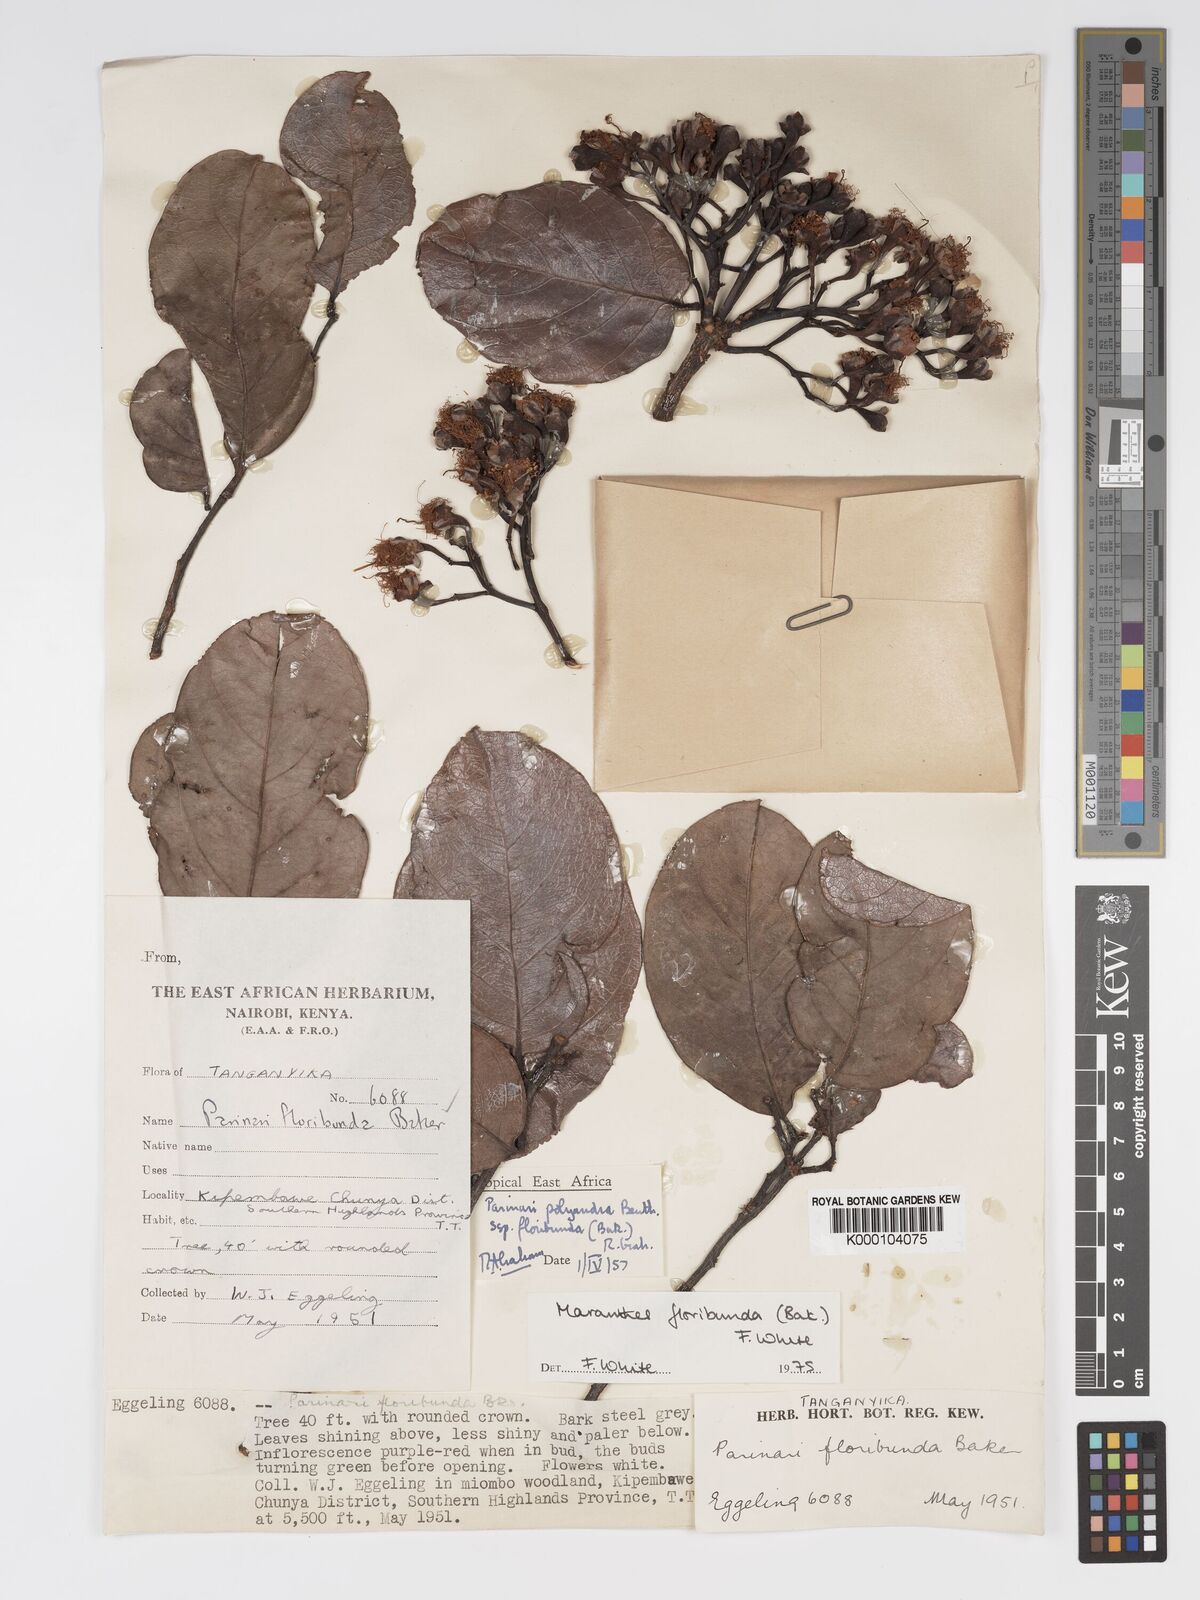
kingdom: Plantae
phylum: Tracheophyta
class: Magnoliopsida
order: Malpighiales
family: Chrysobalanaceae
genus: Maranthes
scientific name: Maranthes floribunda
